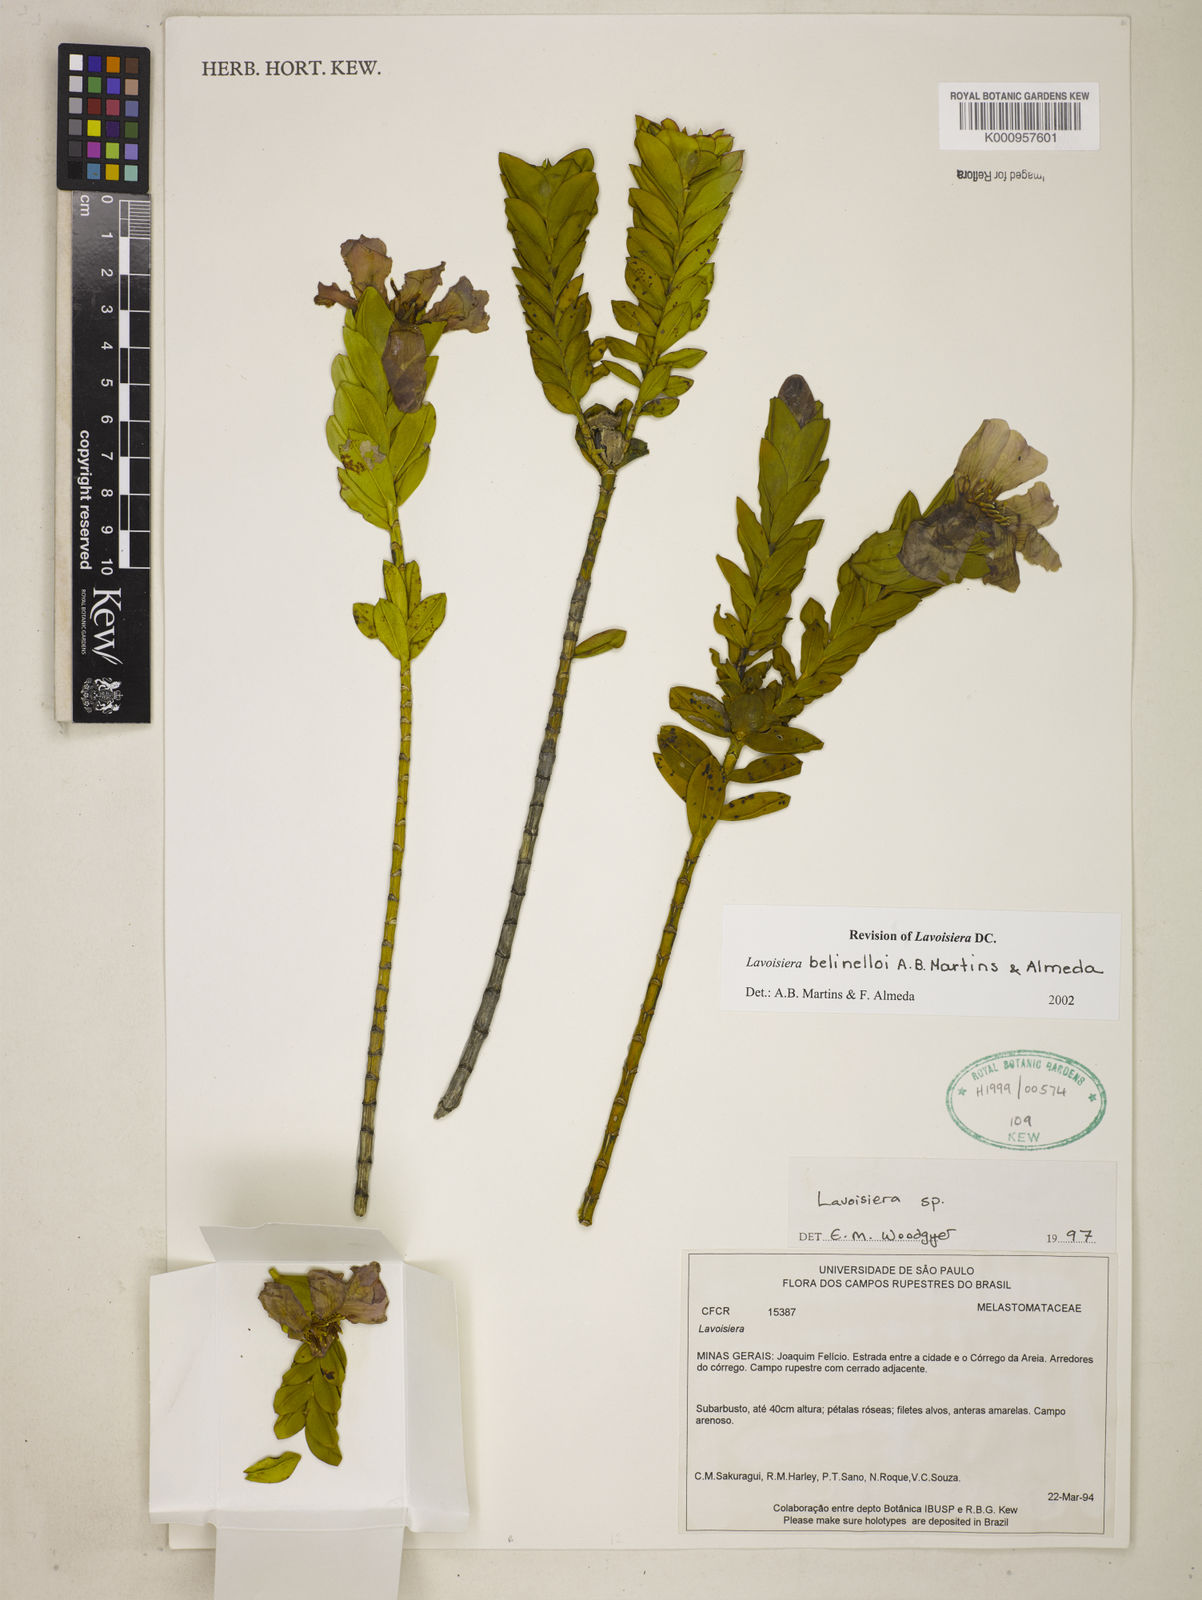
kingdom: Plantae
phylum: Tracheophyta
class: Magnoliopsida
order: Myrtales
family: Melastomataceae
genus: Microlicia
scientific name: Microlicia belinelloi
